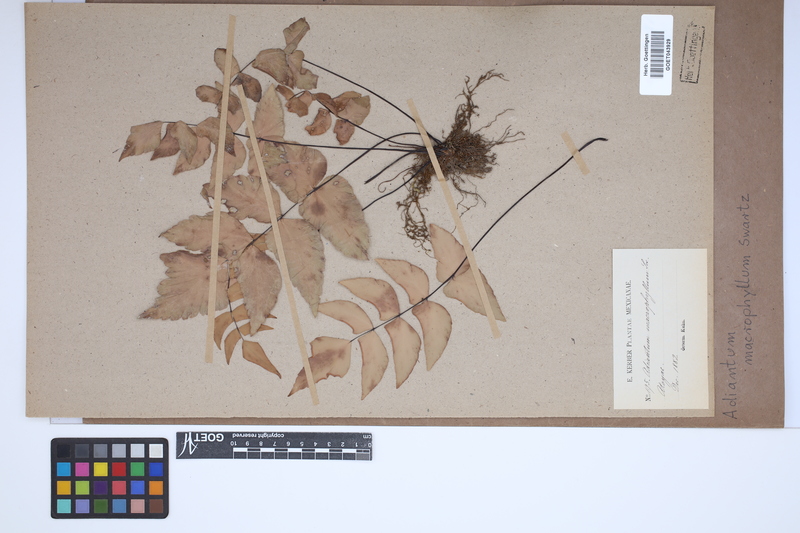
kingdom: Plantae
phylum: Tracheophyta
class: Polypodiopsida
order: Polypodiales
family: Pteridaceae
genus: Adiantum
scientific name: Adiantum macrophyllum
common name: Largeleaf maidenhair
